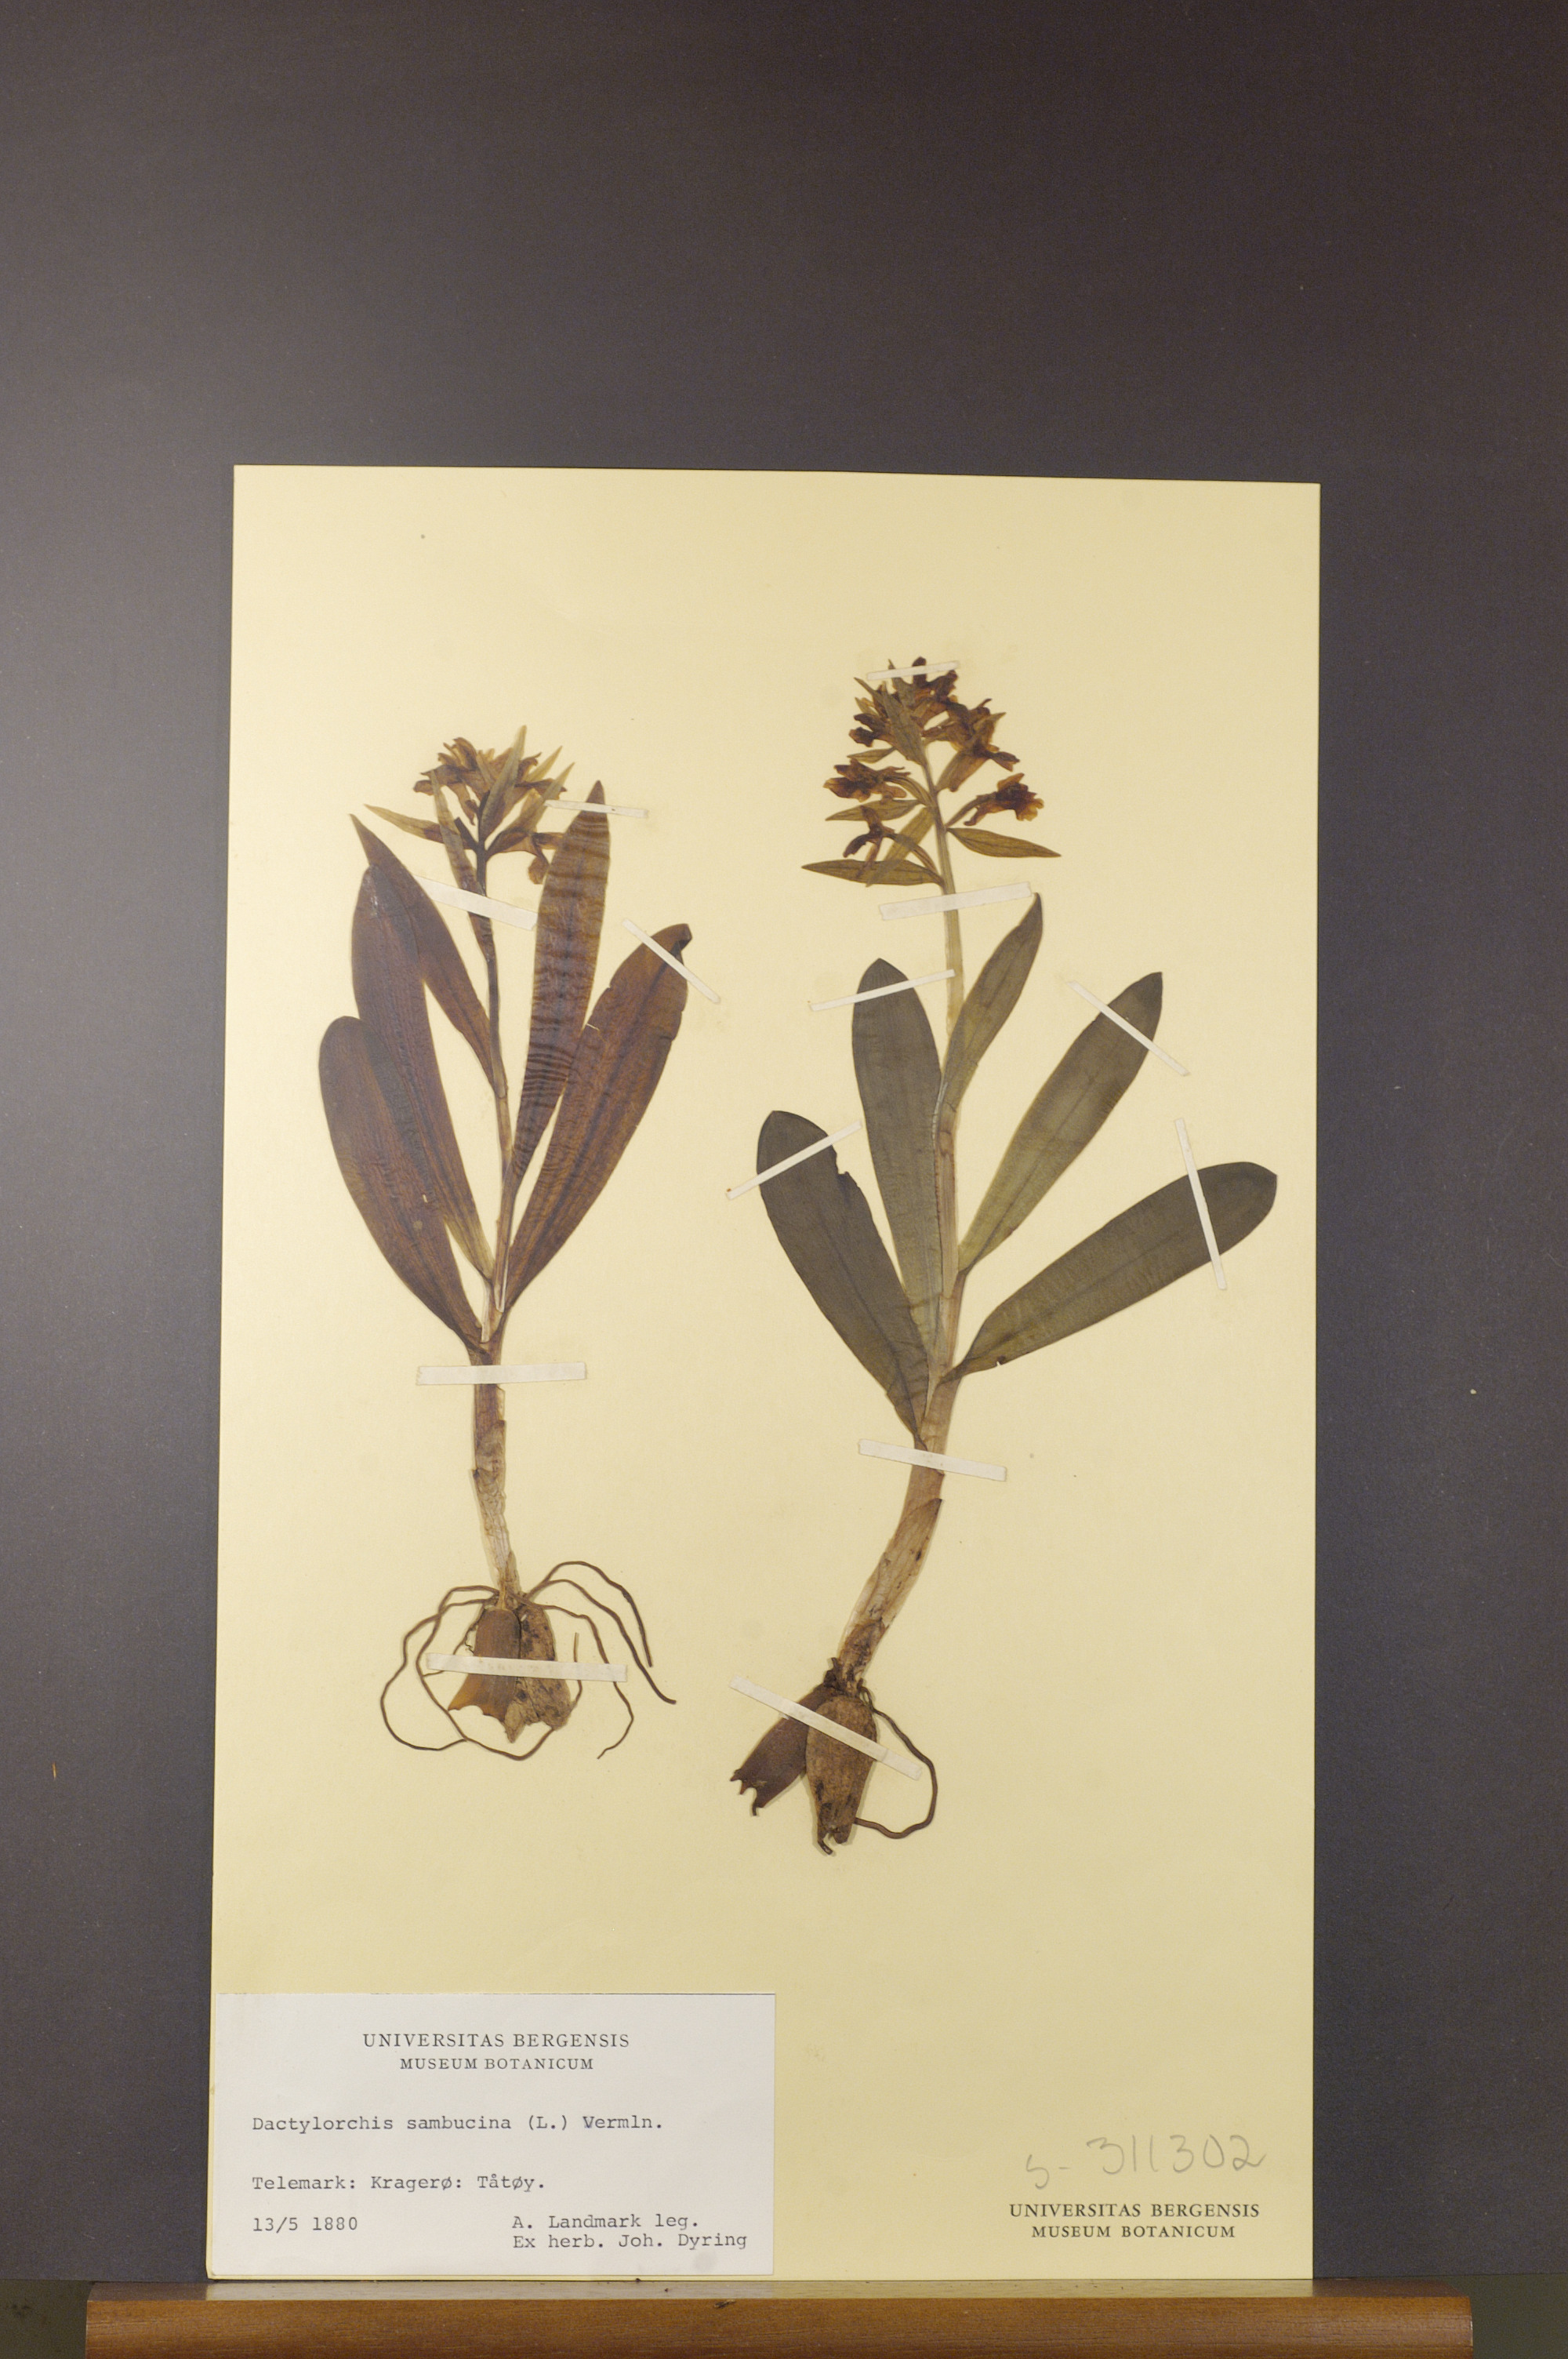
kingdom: Plantae
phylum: Tracheophyta
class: Liliopsida
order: Asparagales
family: Orchidaceae
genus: Dactylorhiza
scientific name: Dactylorhiza sambucina
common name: Elder-flowered orchid
